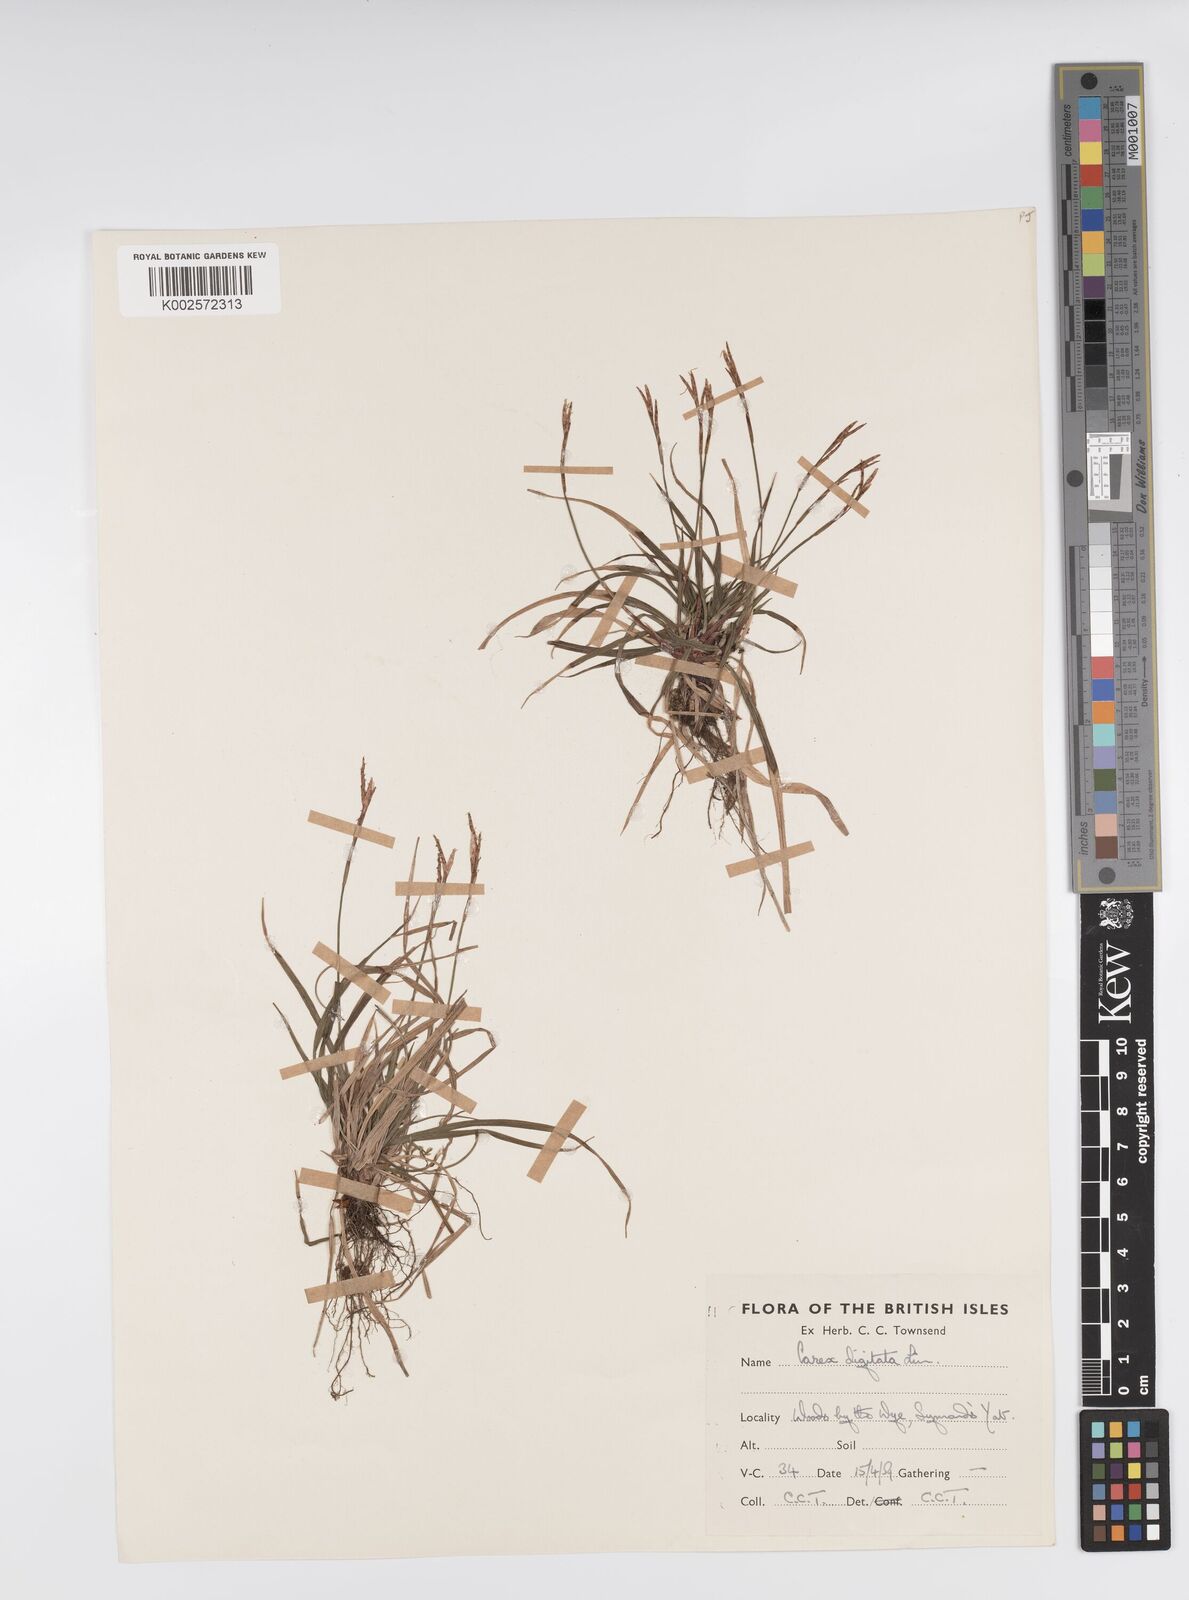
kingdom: Plantae
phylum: Tracheophyta
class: Liliopsida
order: Poales
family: Cyperaceae
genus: Carex
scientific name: Carex digitata
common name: Fingered sedge
